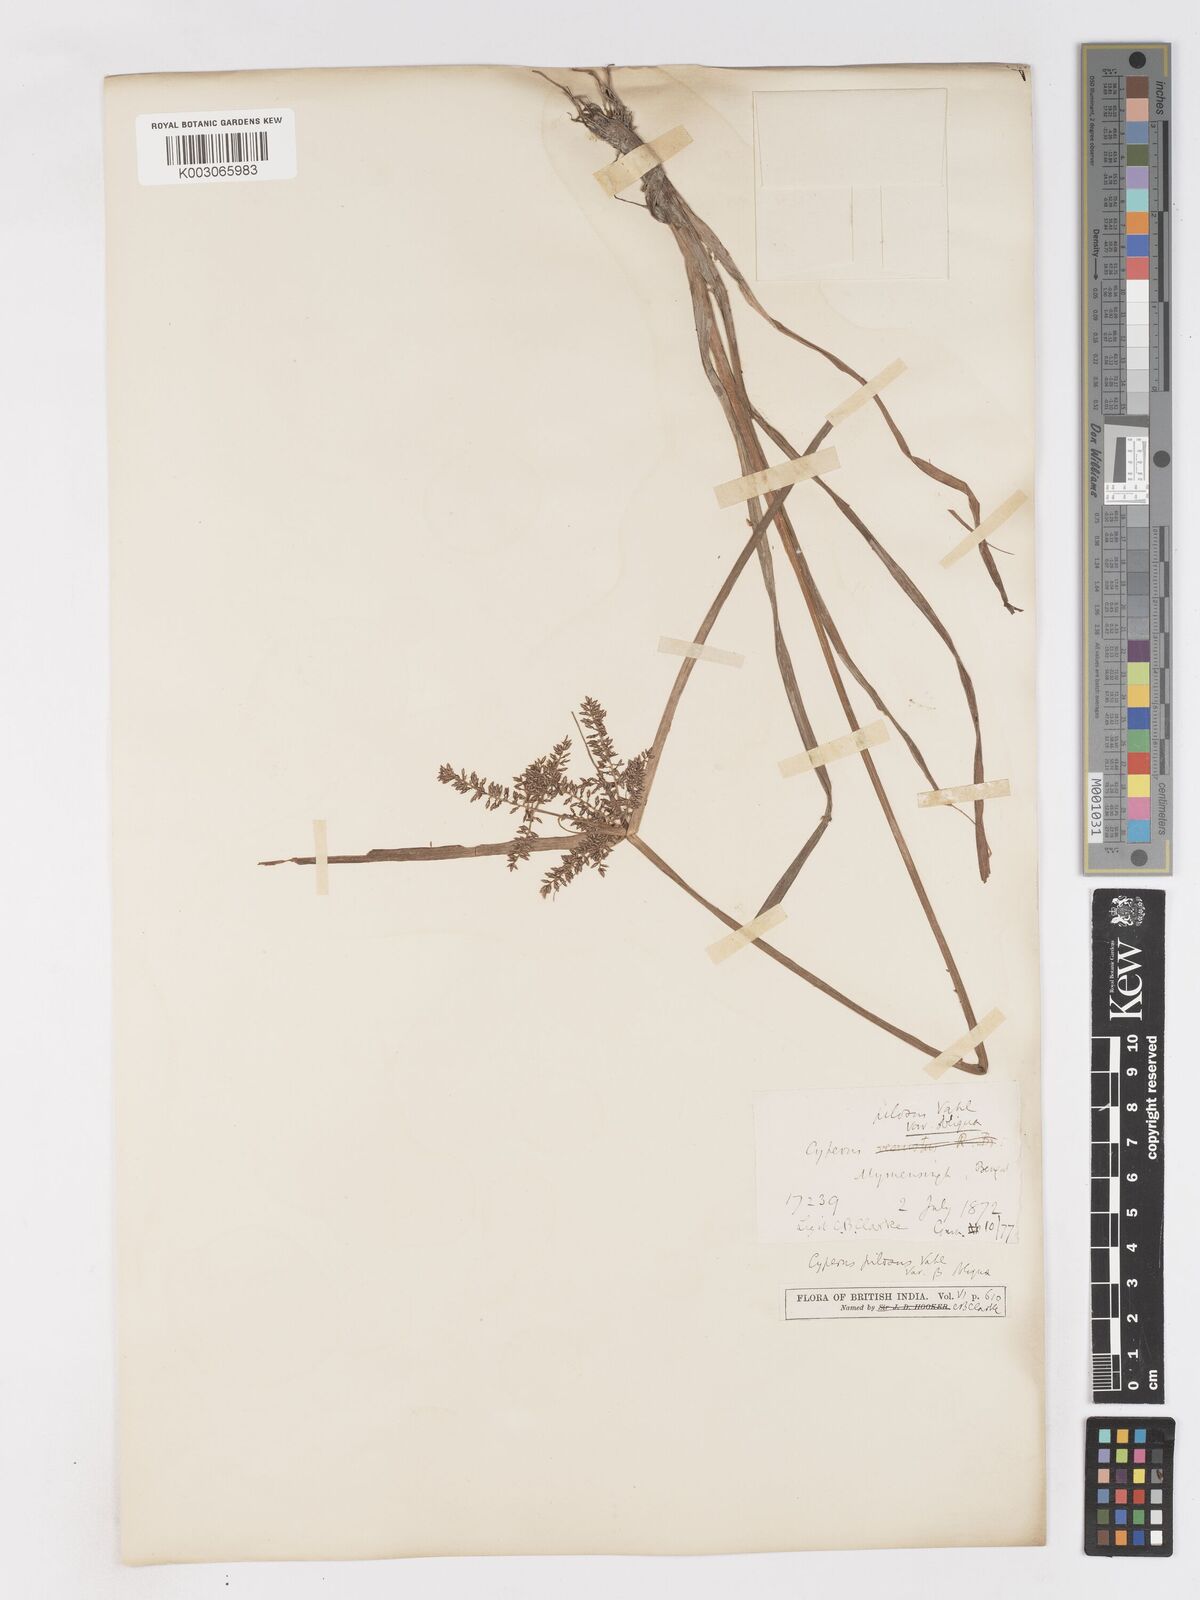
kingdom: Plantae
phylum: Tracheophyta
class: Liliopsida
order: Poales
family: Cyperaceae
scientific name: Cyperaceae
